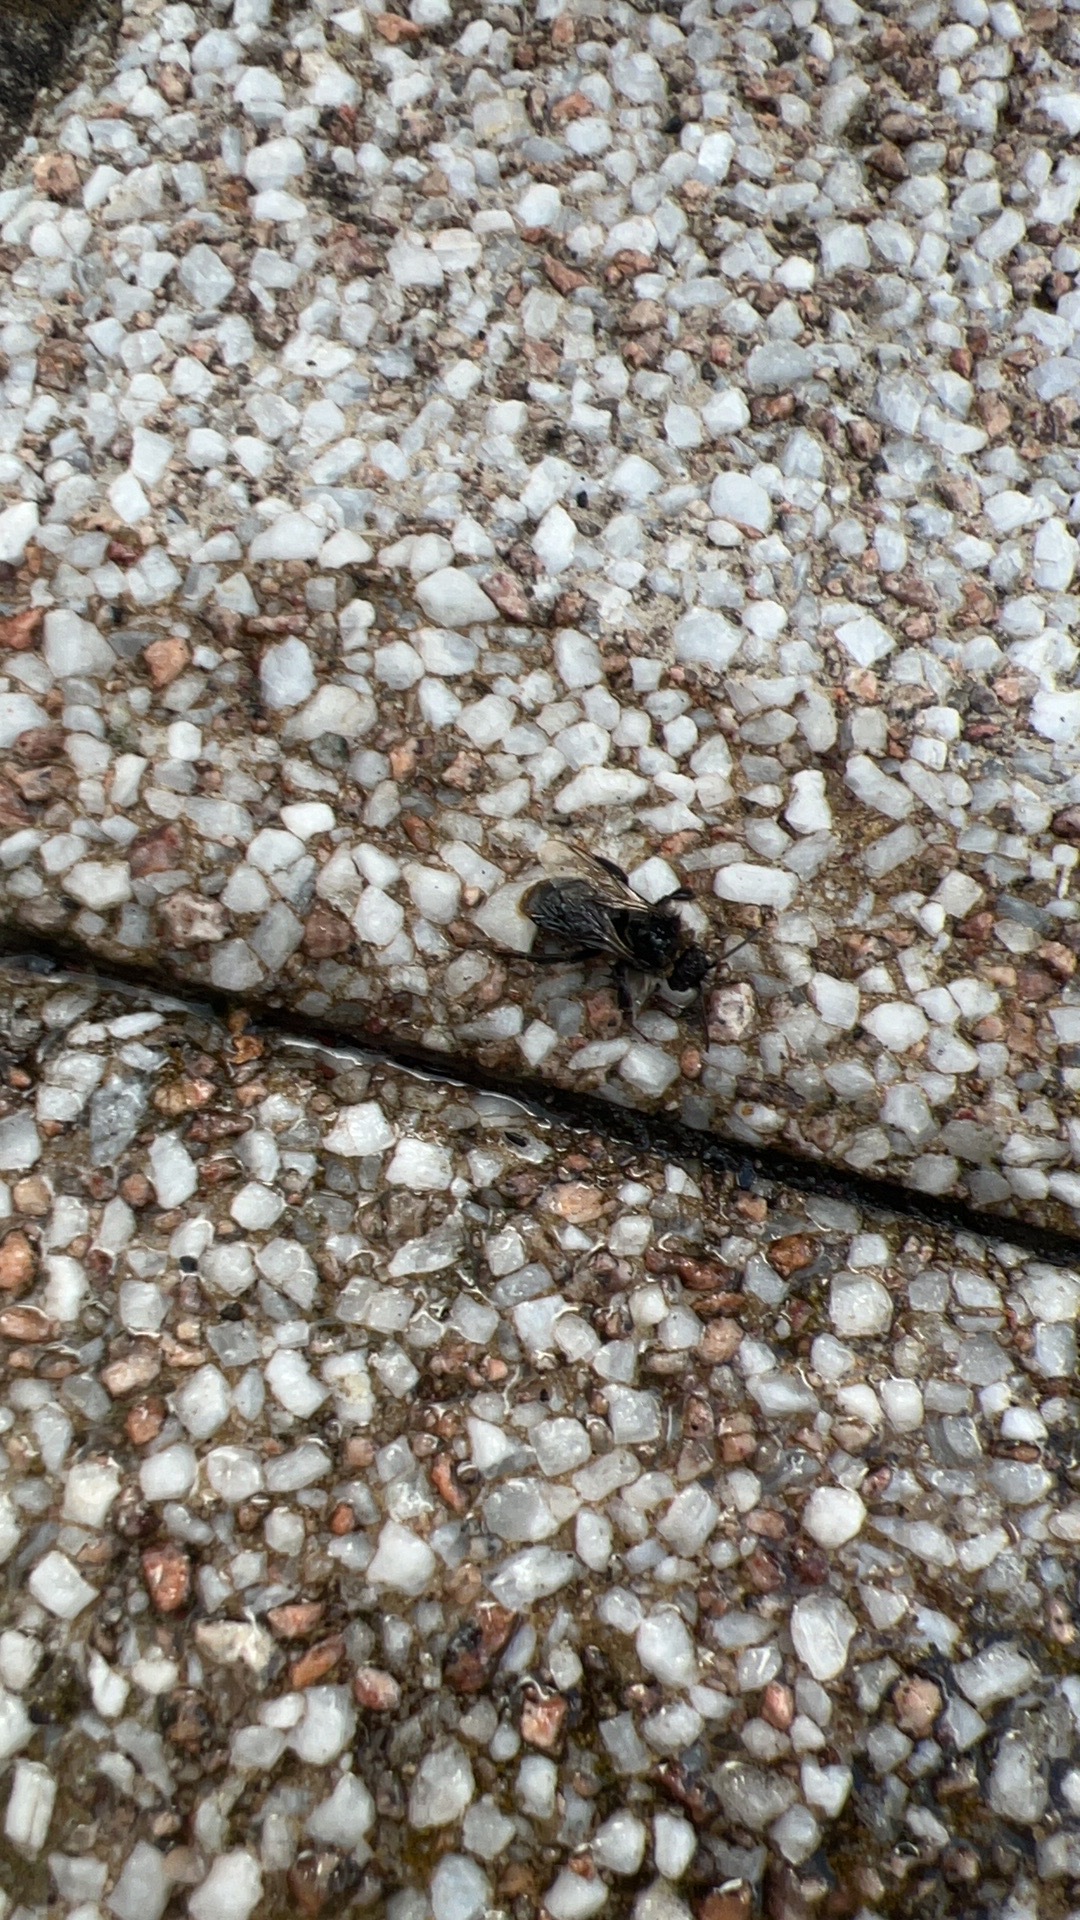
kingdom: Animalia
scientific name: Animalia
